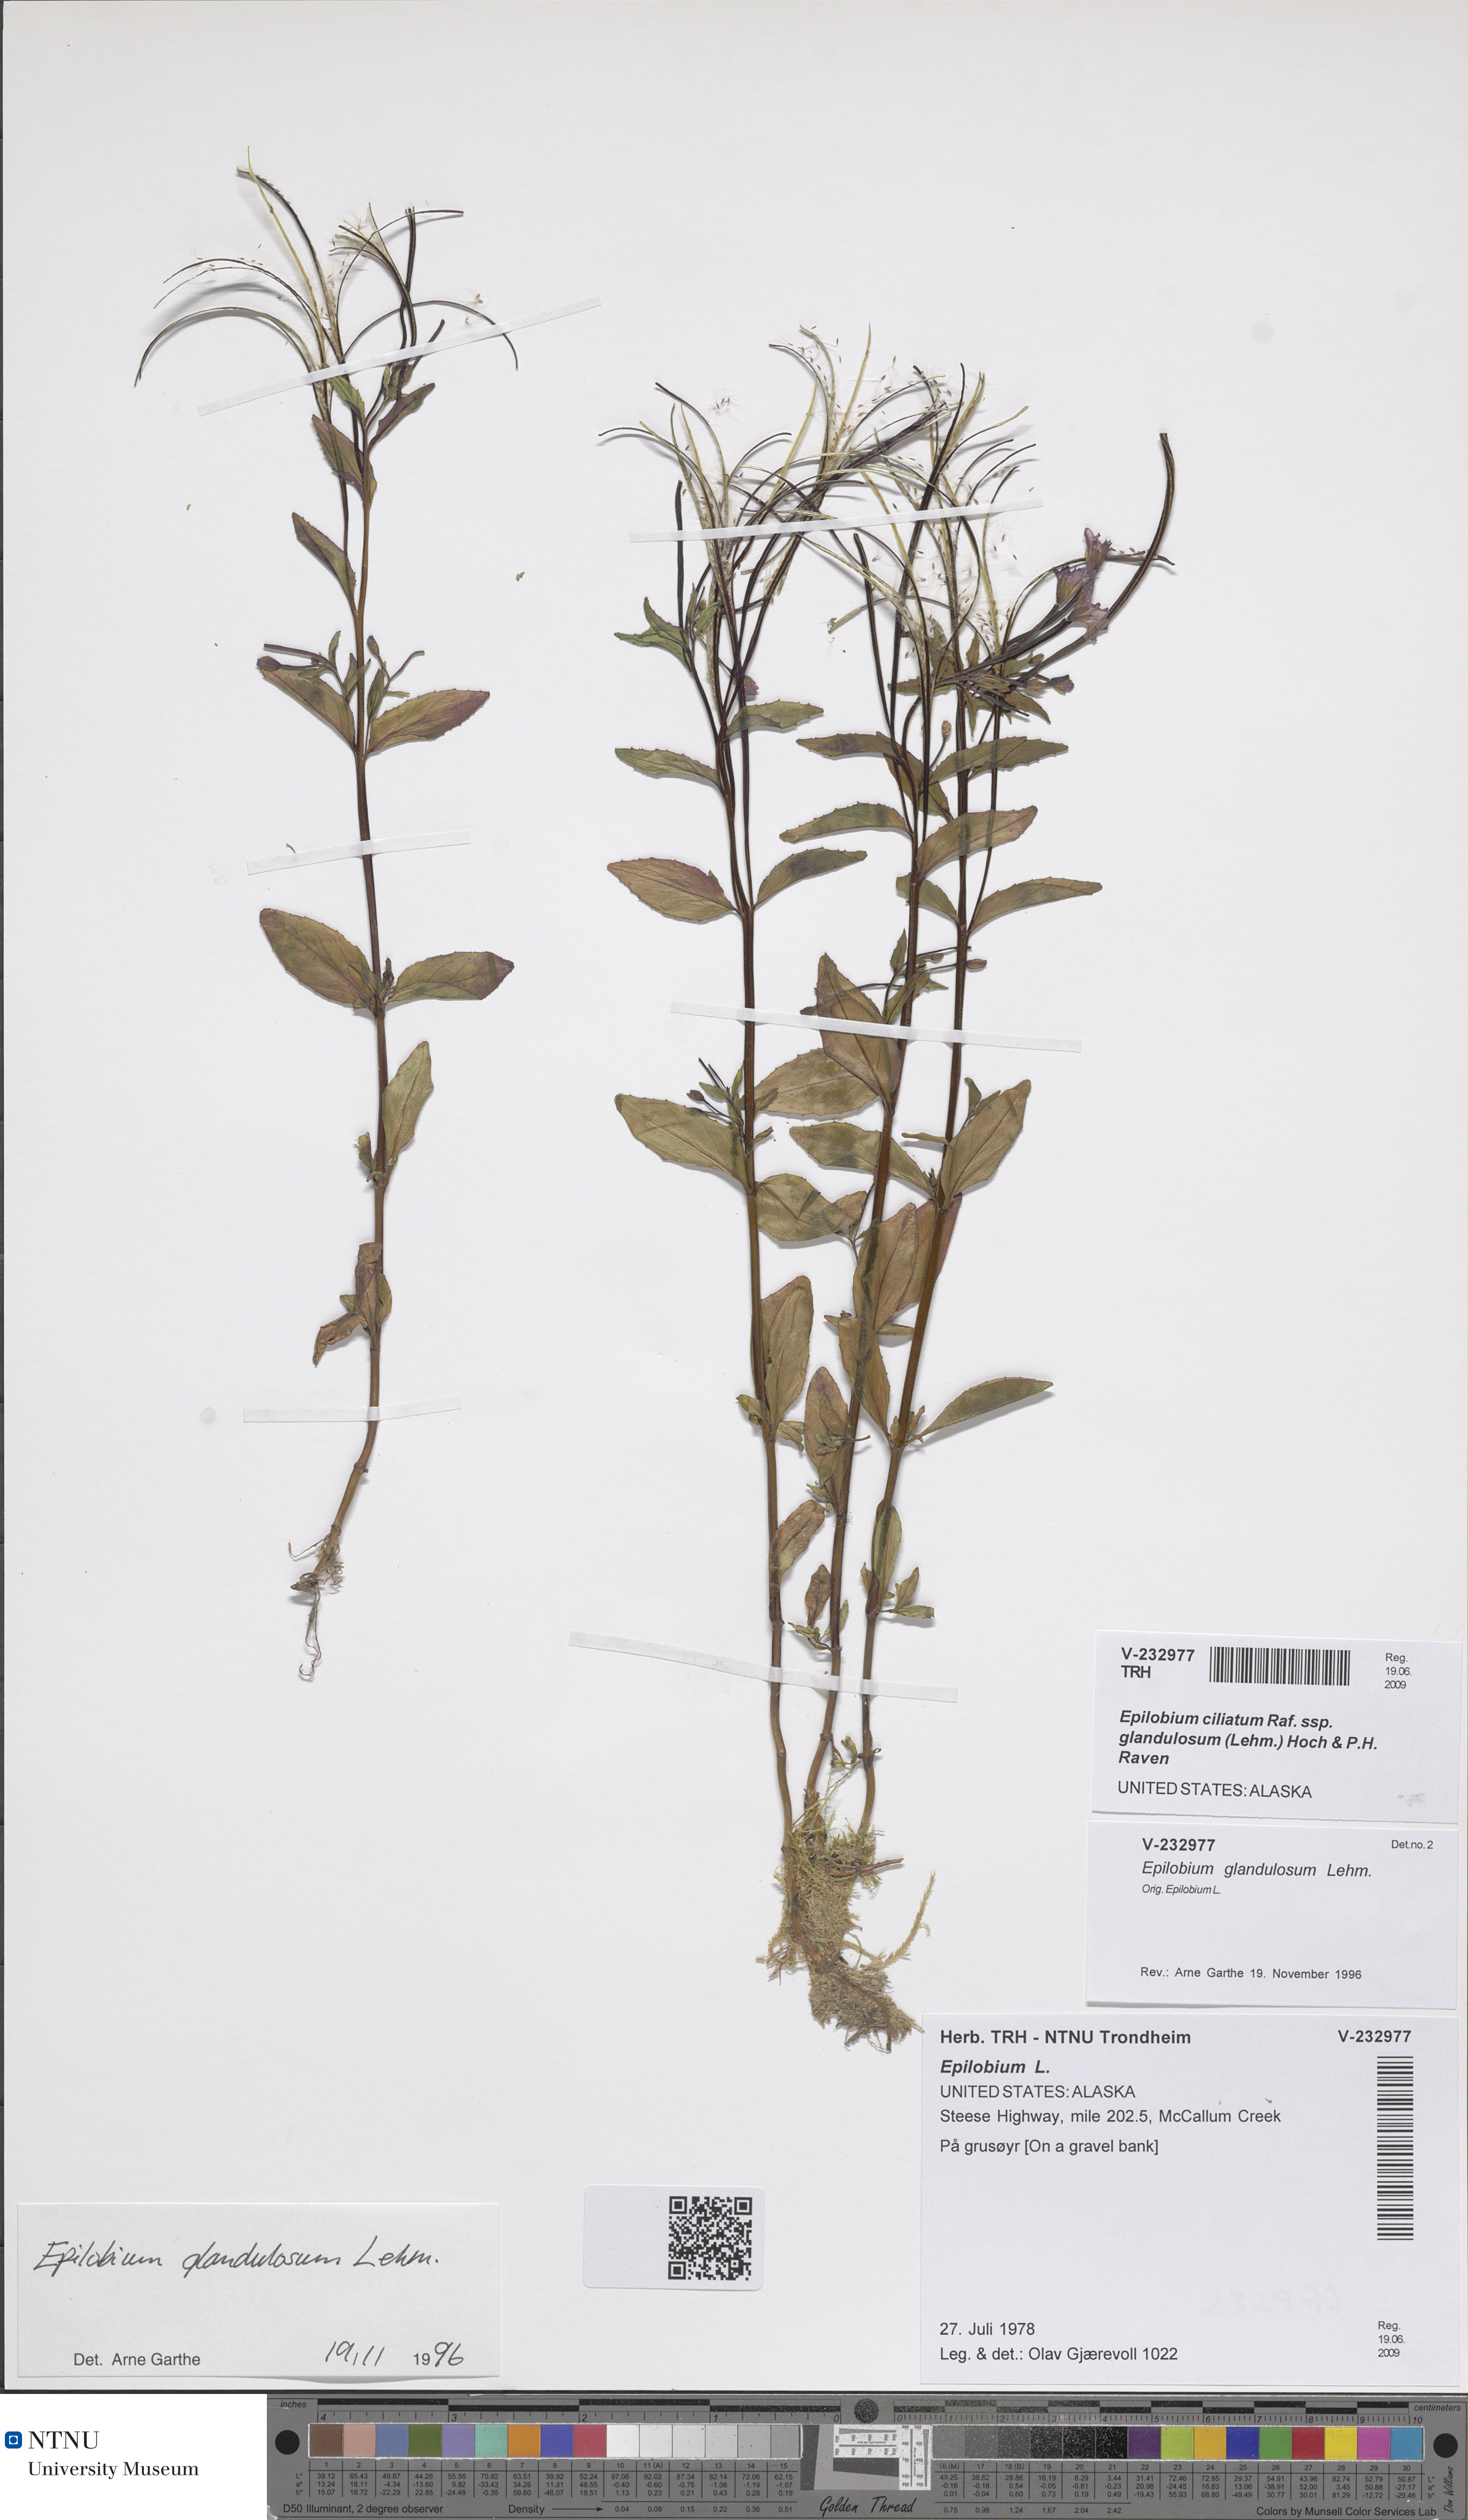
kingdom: Plantae
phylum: Tracheophyta
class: Magnoliopsida
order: Myrtales
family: Onagraceae
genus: Epilobium
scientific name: Epilobium ciliatum
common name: American willowherb
